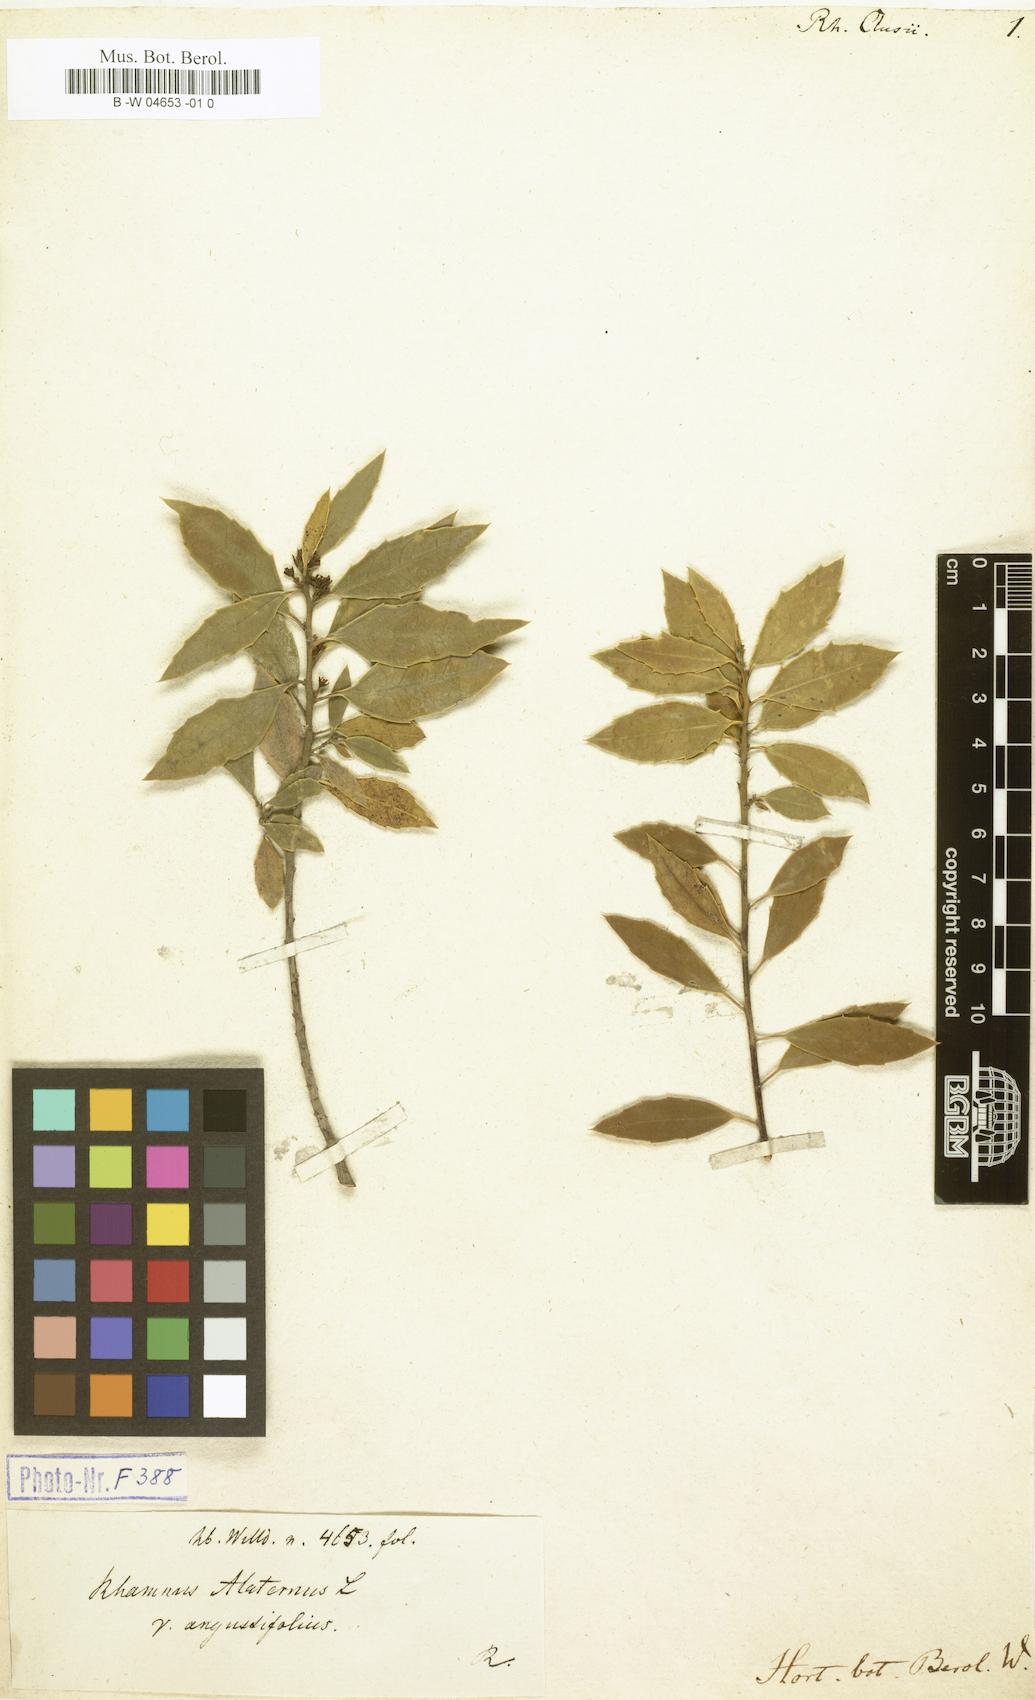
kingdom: Plantae
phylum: Tracheophyta
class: Magnoliopsida
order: Rosales
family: Rhamnaceae
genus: Rhamnus
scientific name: Rhamnus alaternus
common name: Mediterranean buckthorn
